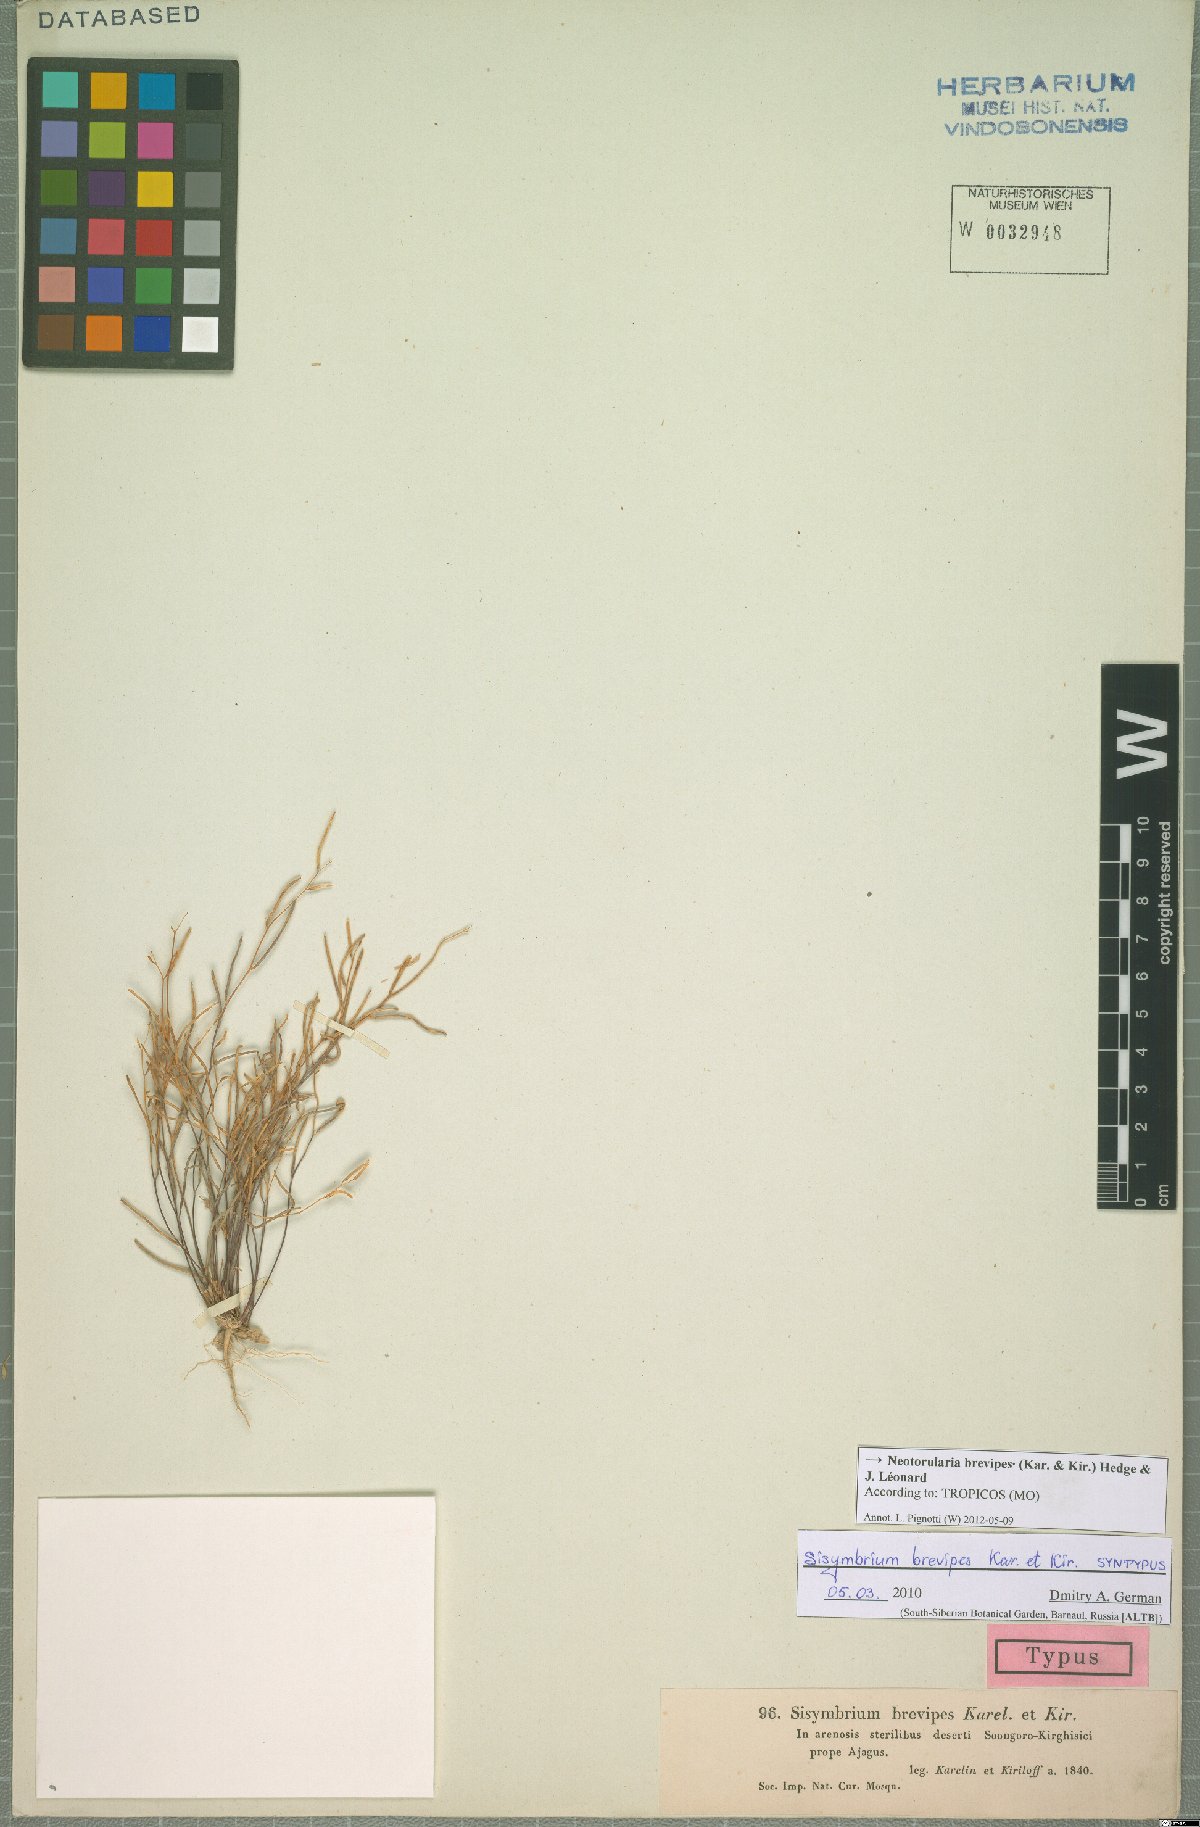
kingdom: Plantae
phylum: Tracheophyta
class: Magnoliopsida
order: Brassicales
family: Brassicaceae
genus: Neotorularia
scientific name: Neotorularia brevipes
